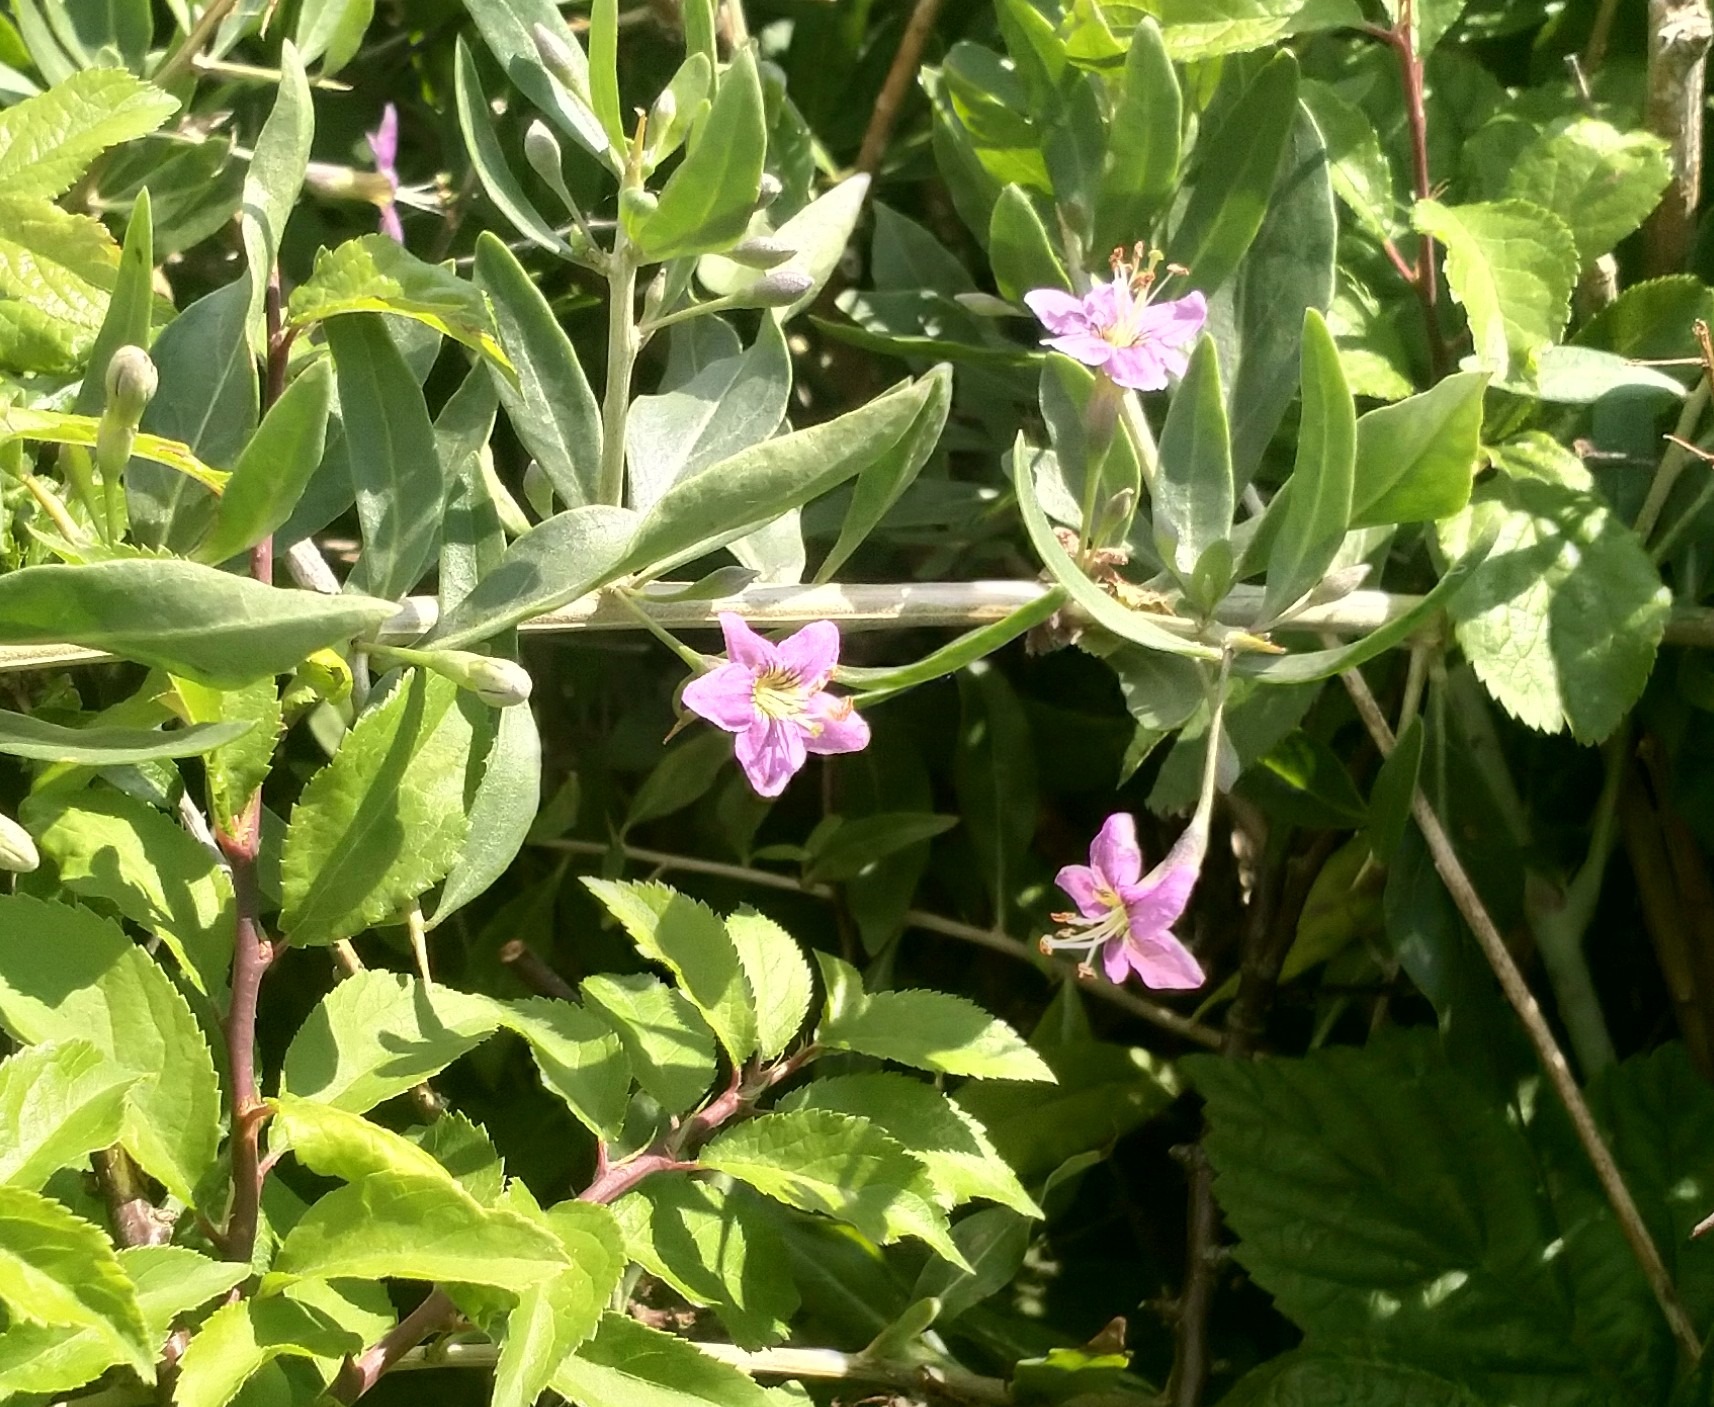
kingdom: Plantae
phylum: Tracheophyta
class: Magnoliopsida
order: Solanales
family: Solanaceae
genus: Lycium
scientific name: Lycium barbarum
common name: Bukketorn
